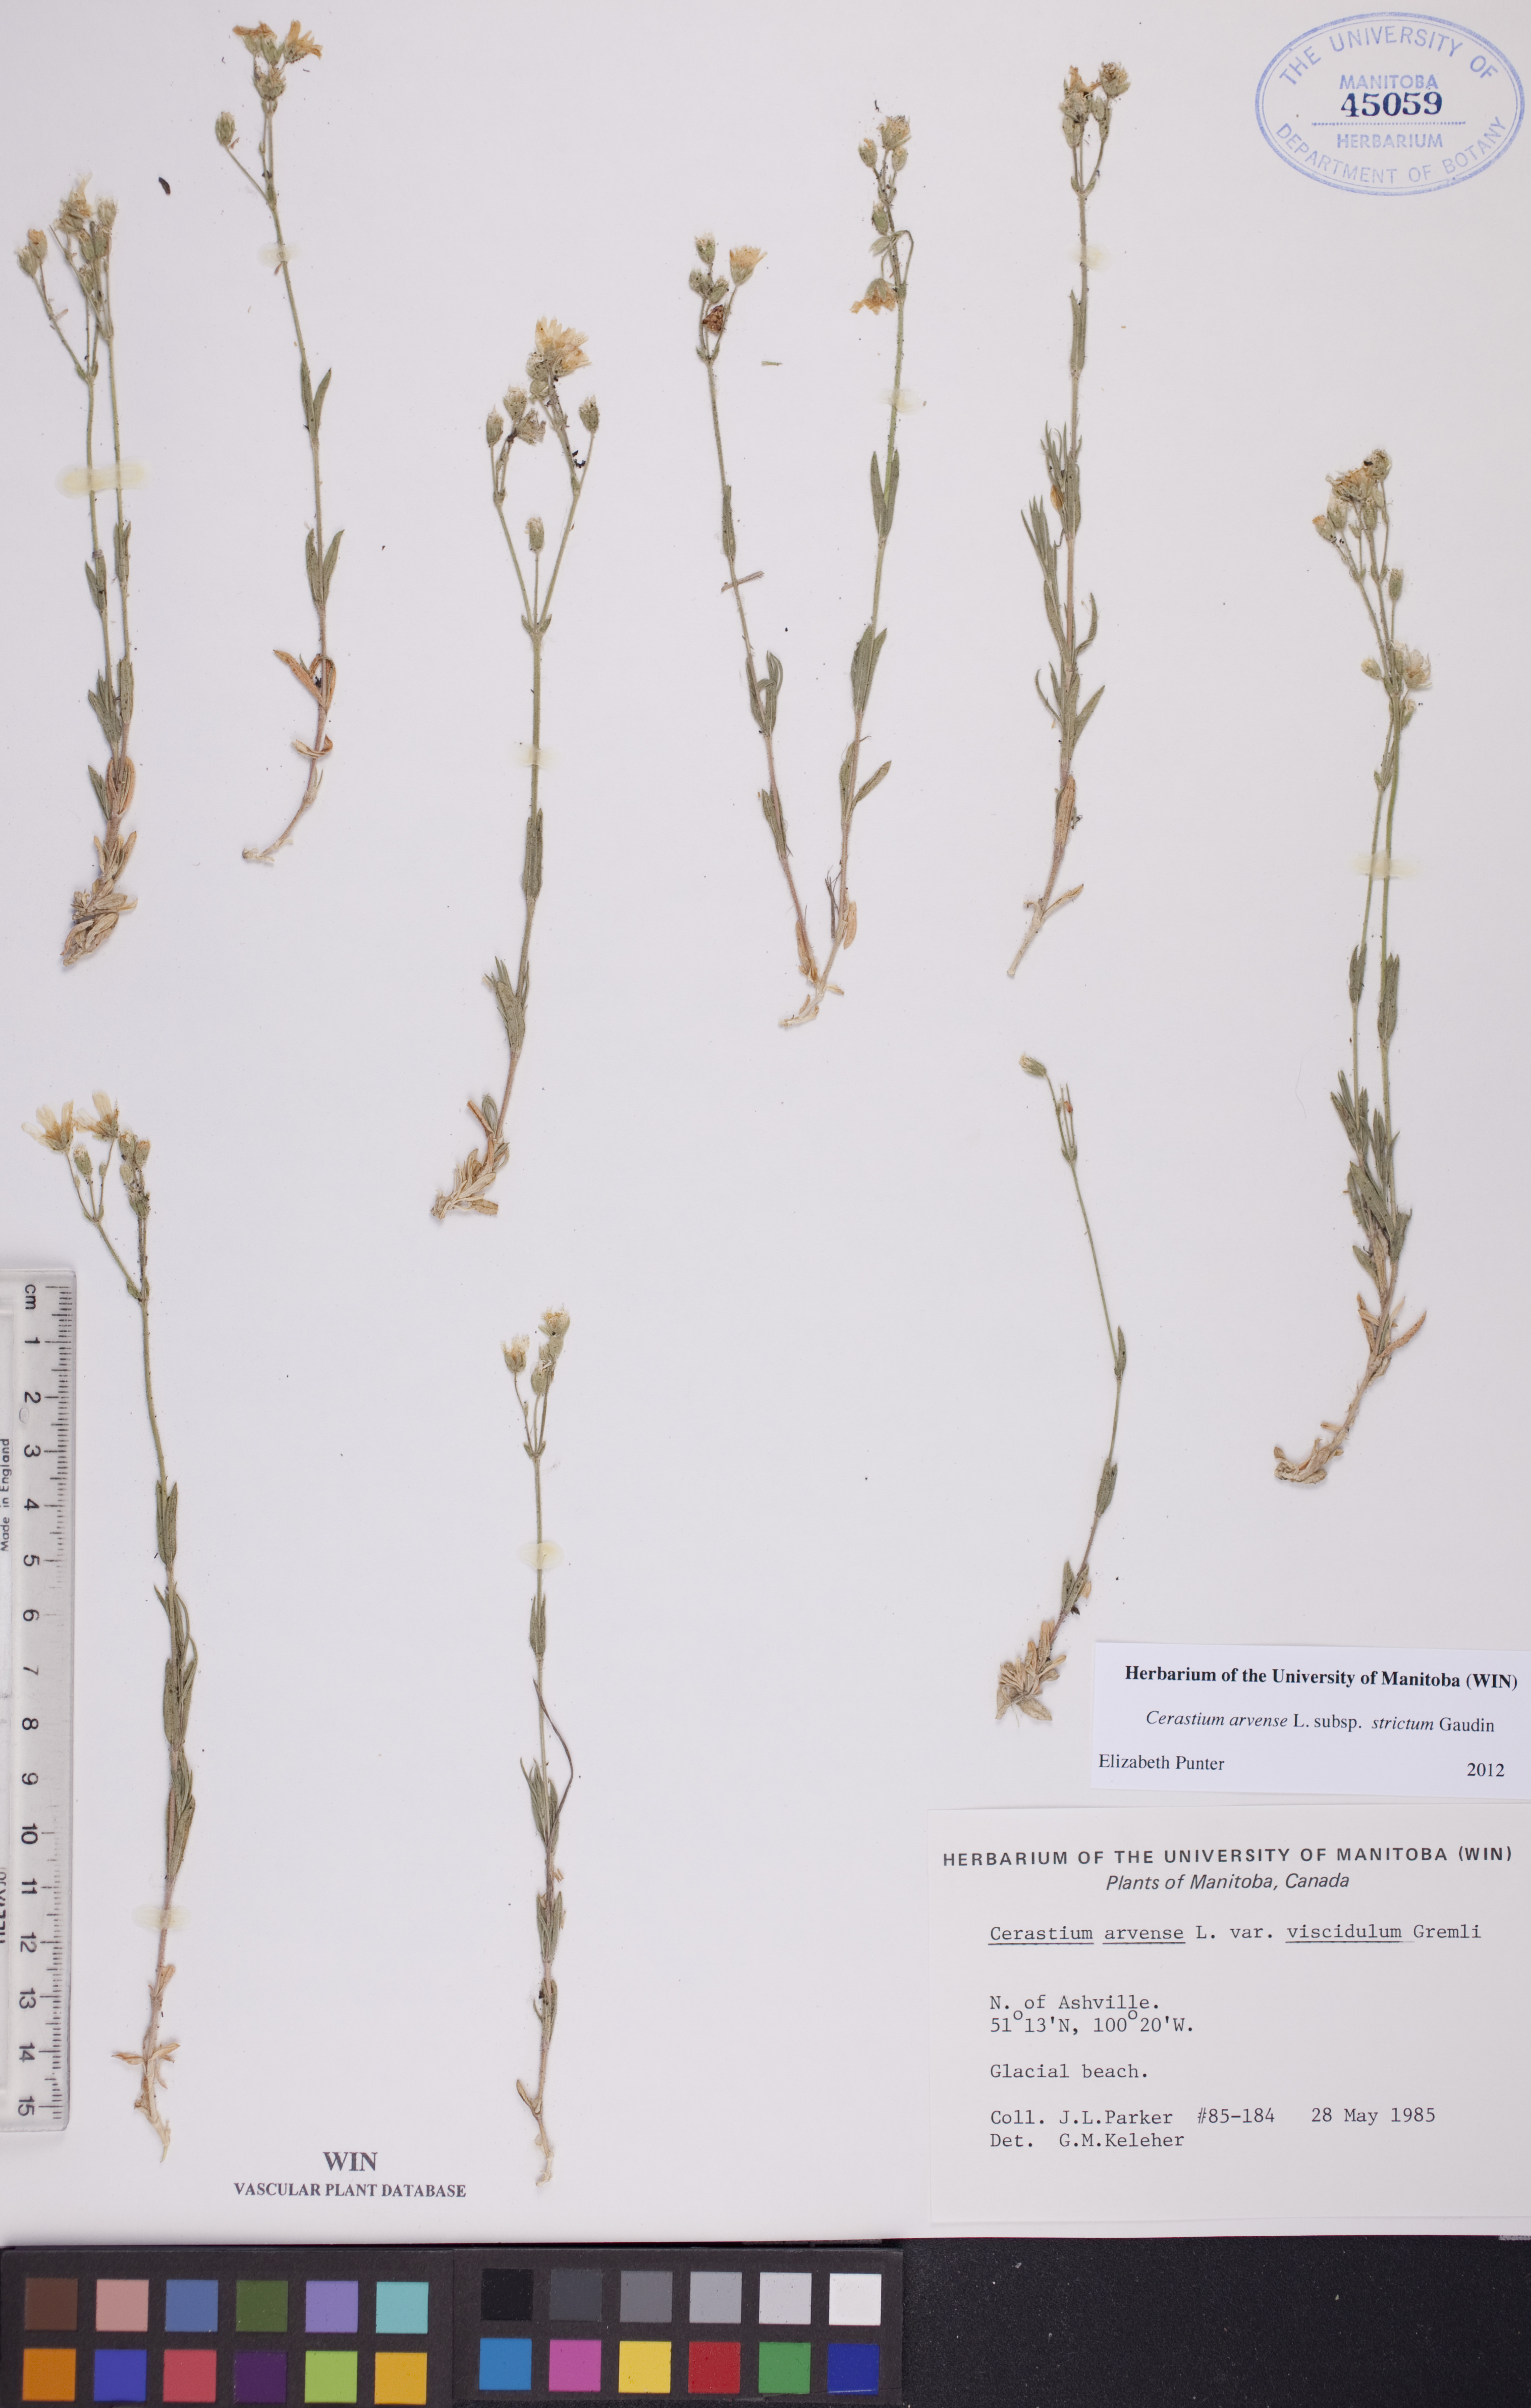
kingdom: Plantae
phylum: Tracheophyta
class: Magnoliopsida
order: Caryophyllales
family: Caryophyllaceae
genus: Cerastium
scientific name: Cerastium elongatum
